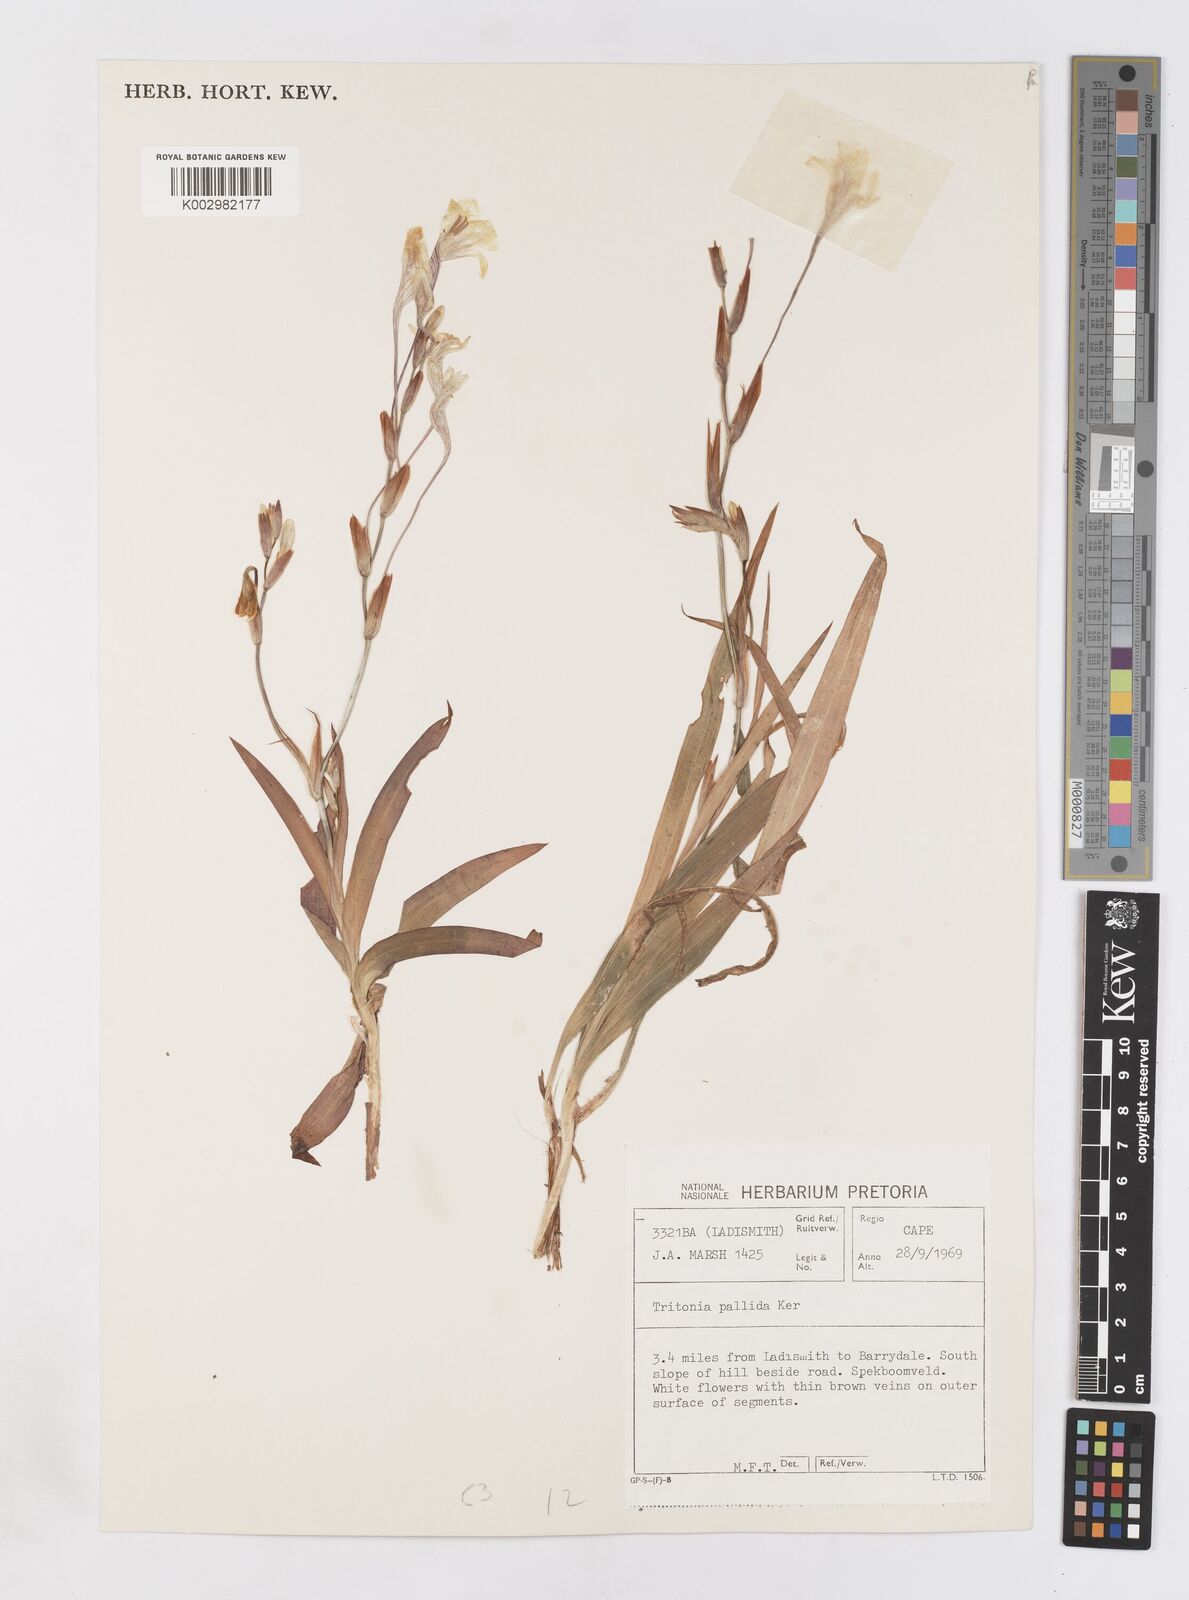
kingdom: Plantae
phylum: Tracheophyta
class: Liliopsida
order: Asparagales
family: Iridaceae
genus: Tritonia
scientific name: Tritonia pallida
